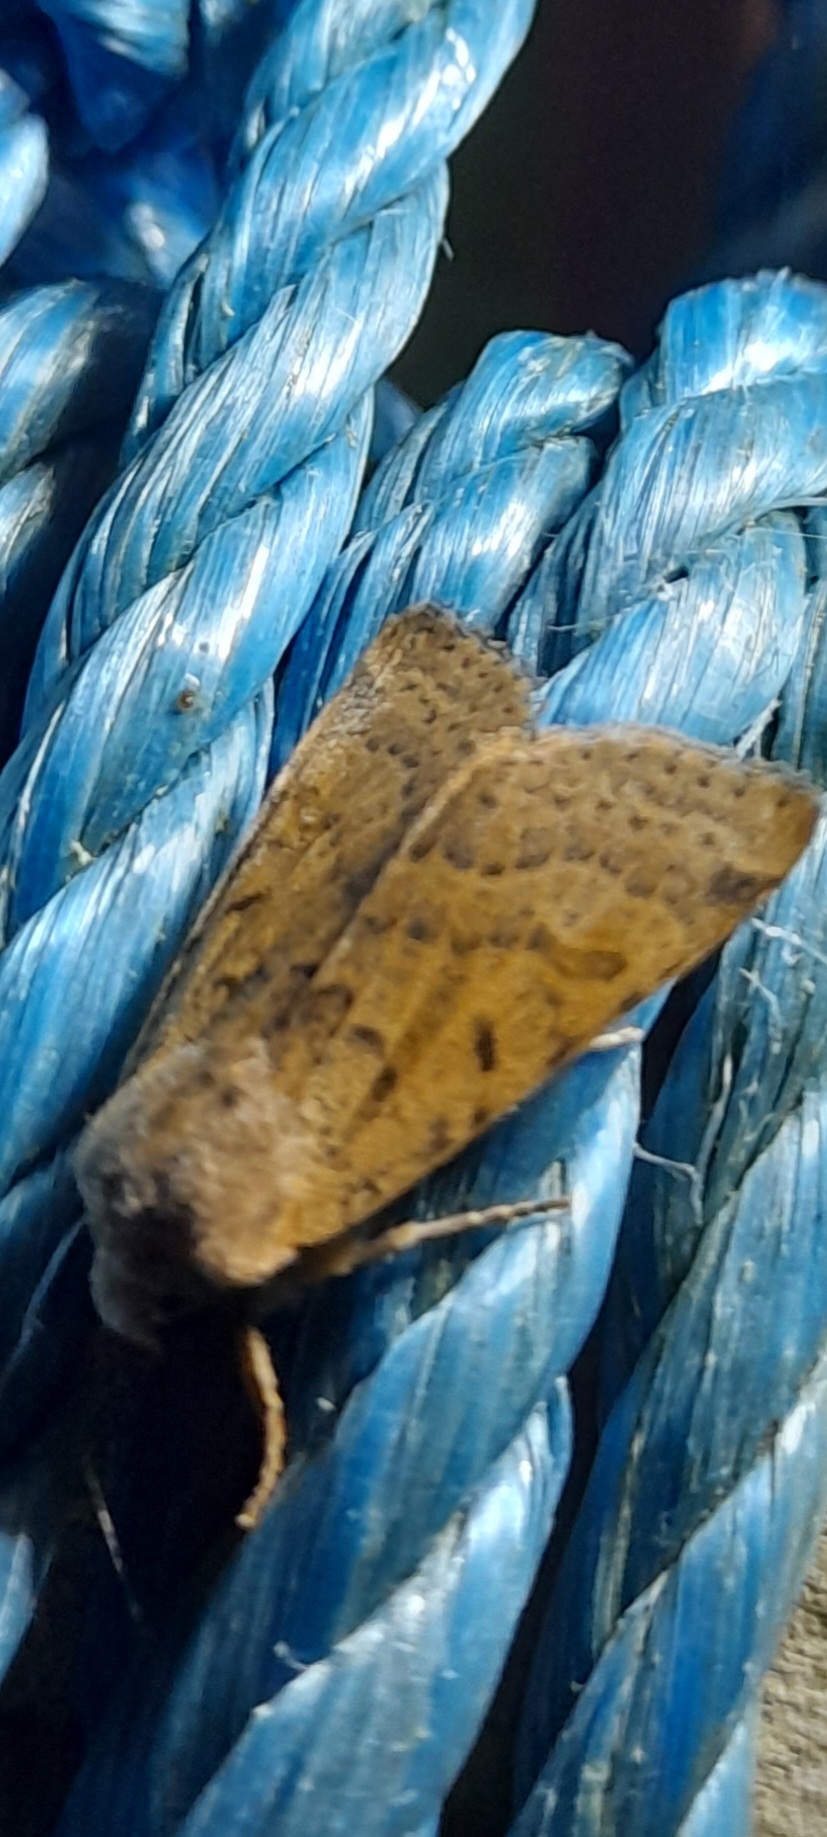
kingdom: Animalia
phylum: Arthropoda
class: Insecta
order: Lepidoptera
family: Noctuidae
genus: Agrochola
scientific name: Agrochola lychnidis
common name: Foranderlig jordfarveugle
